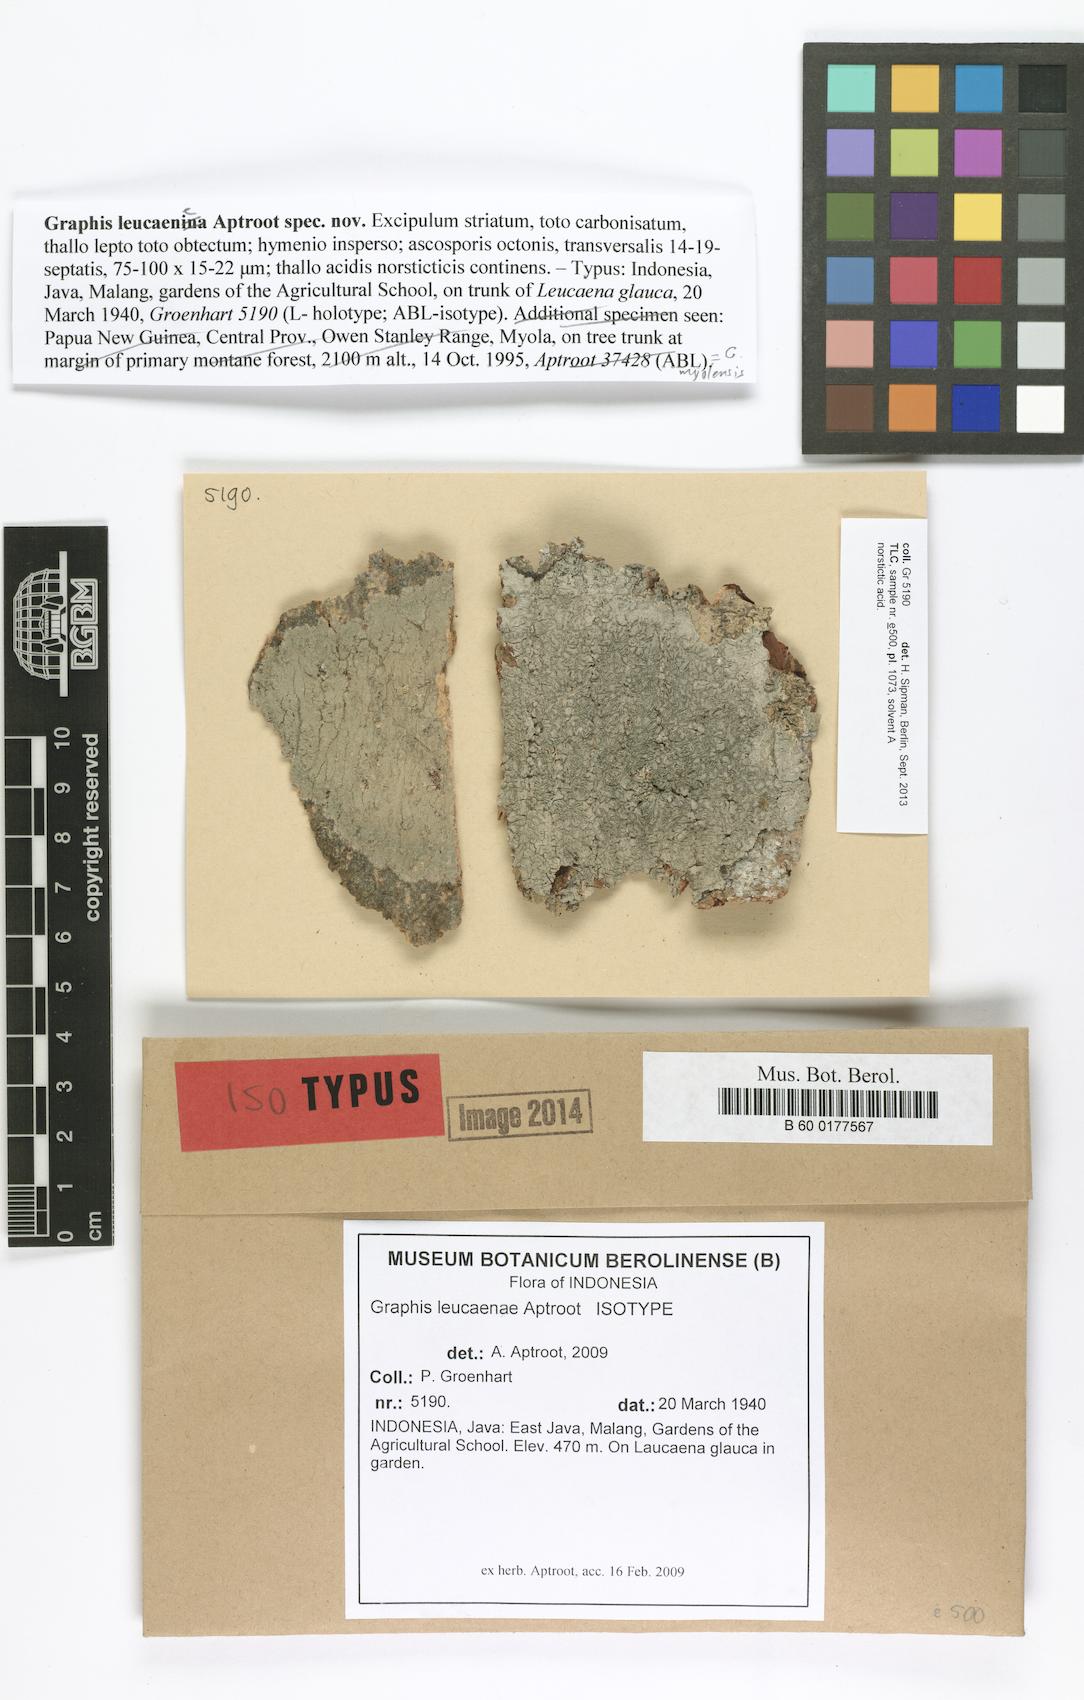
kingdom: Fungi
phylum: Ascomycota
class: Lecanoromycetes
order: Ostropales
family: Graphidaceae
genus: Allographa
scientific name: Allographa leucaenae
